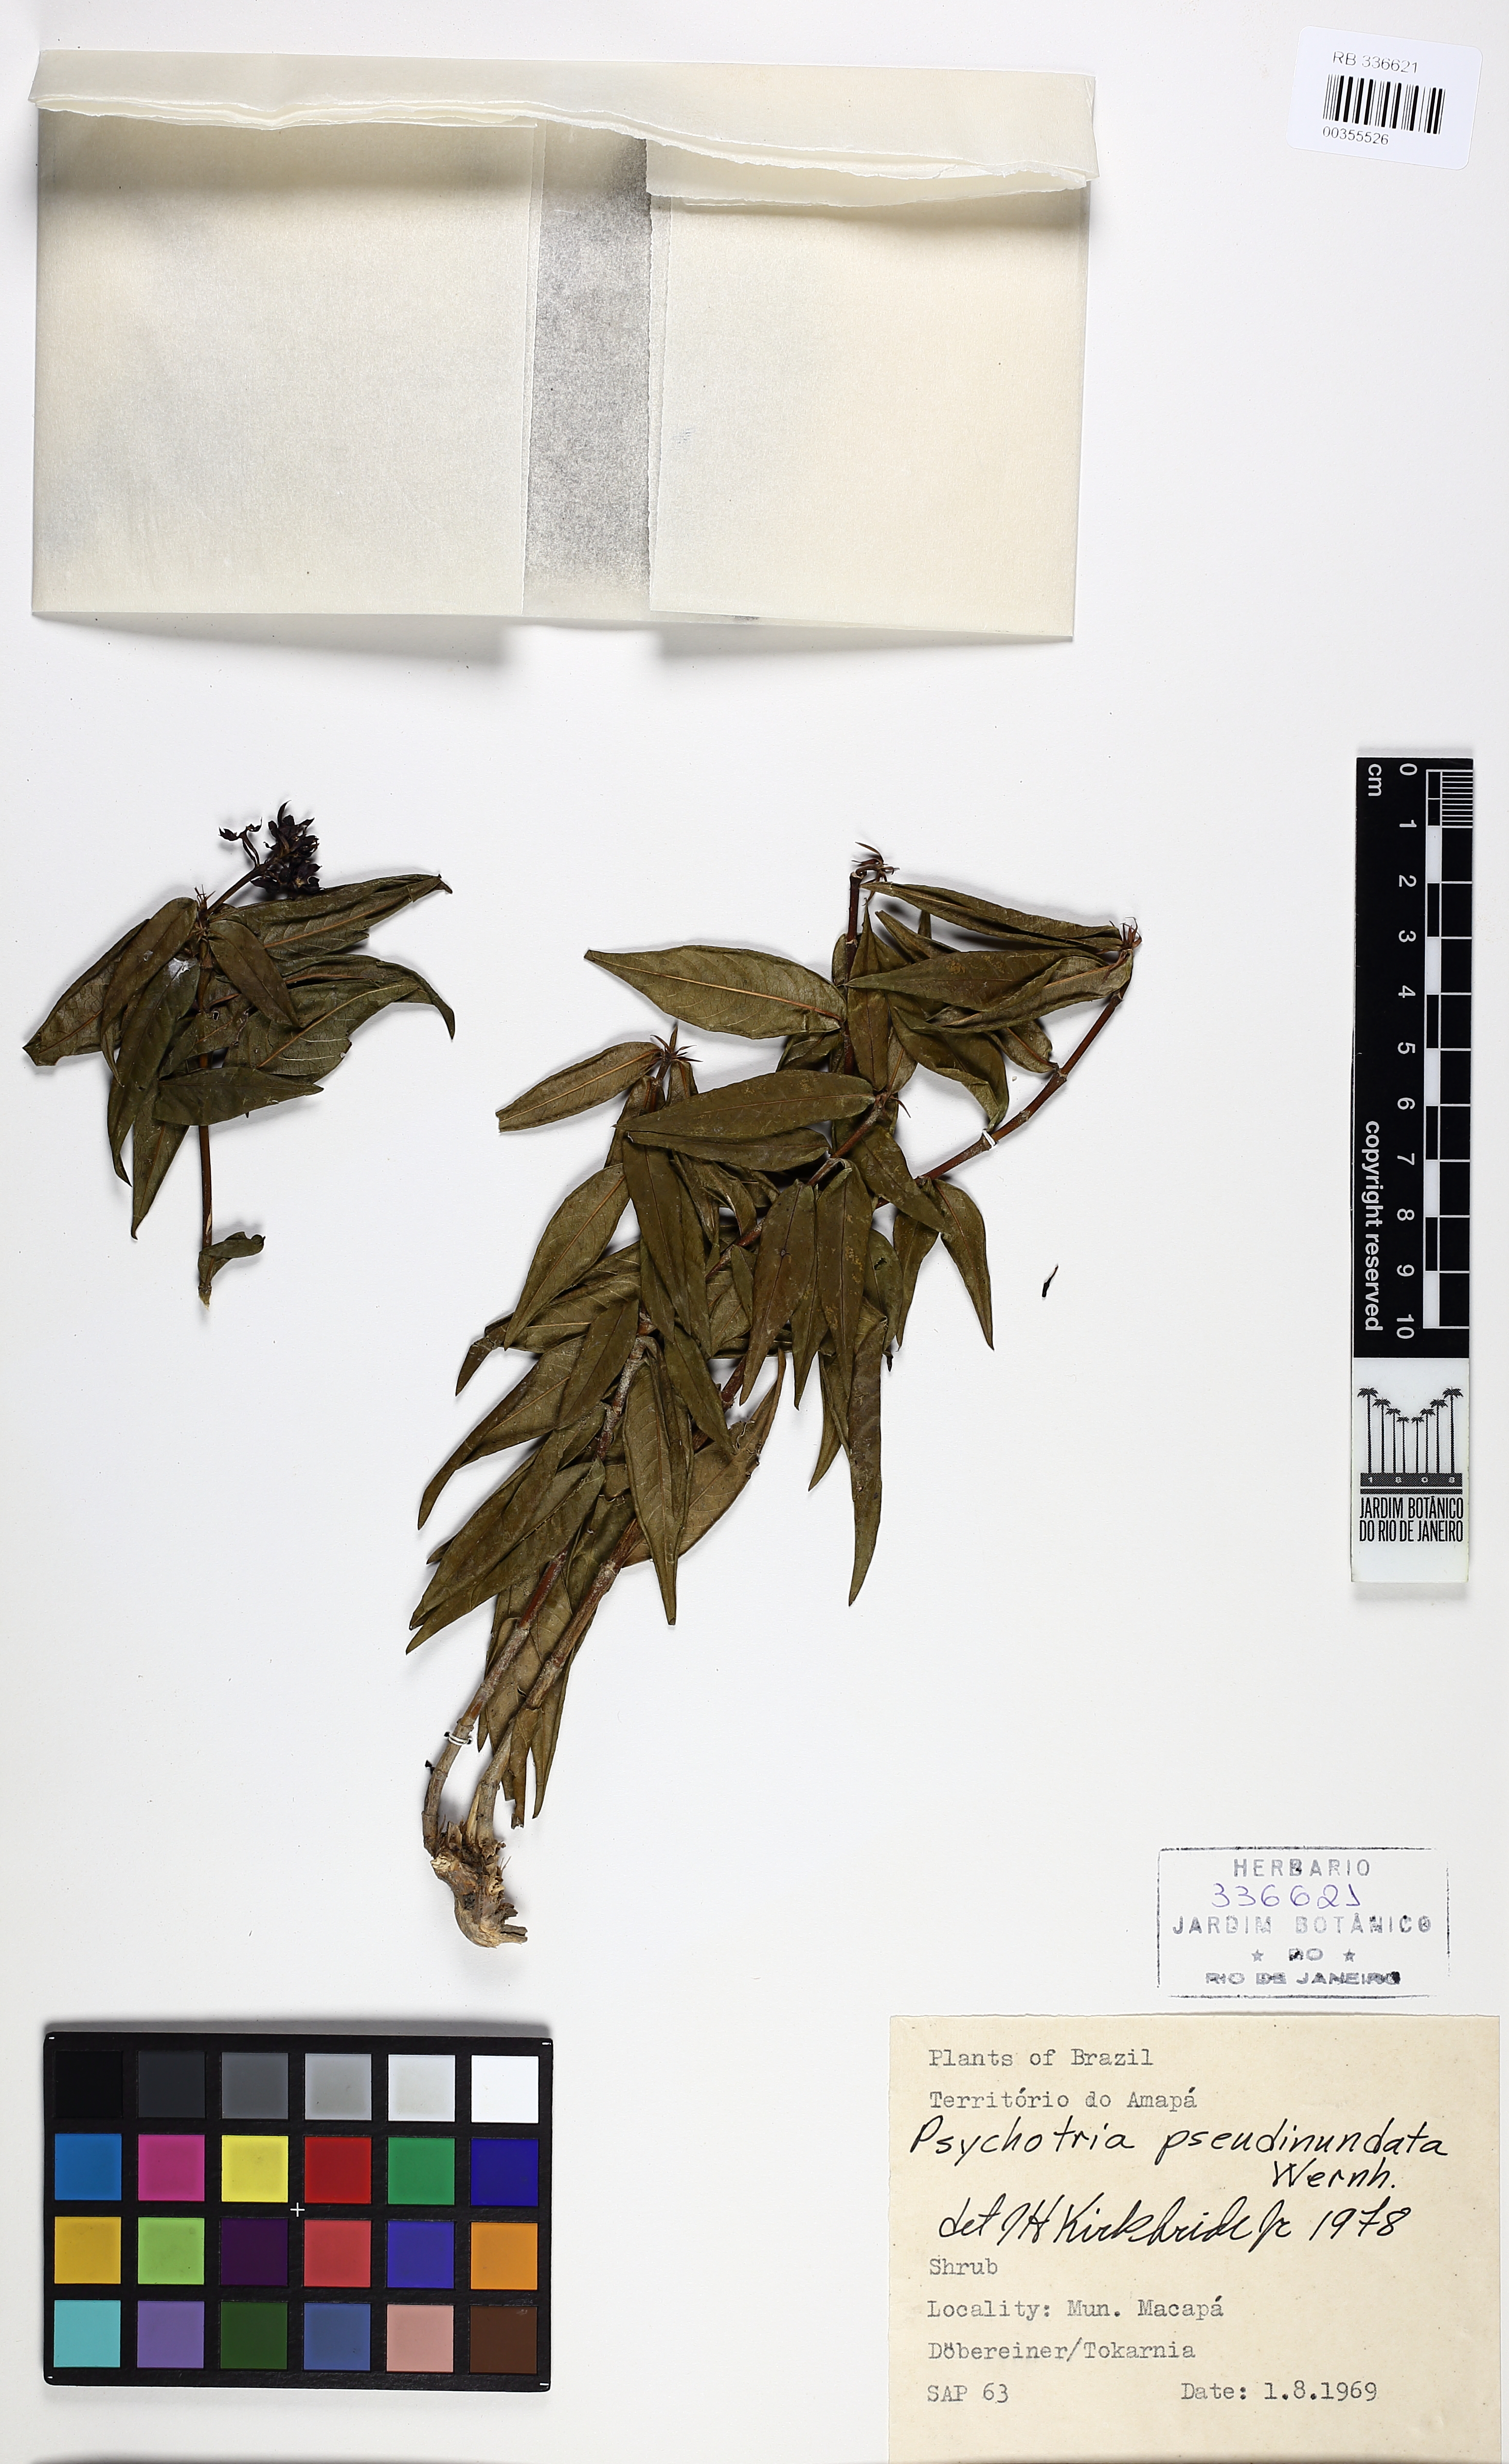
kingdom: Plantae
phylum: Tracheophyta
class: Magnoliopsida
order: Gentianales
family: Rubiaceae
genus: Palicourea
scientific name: Palicourea pseudinundata
